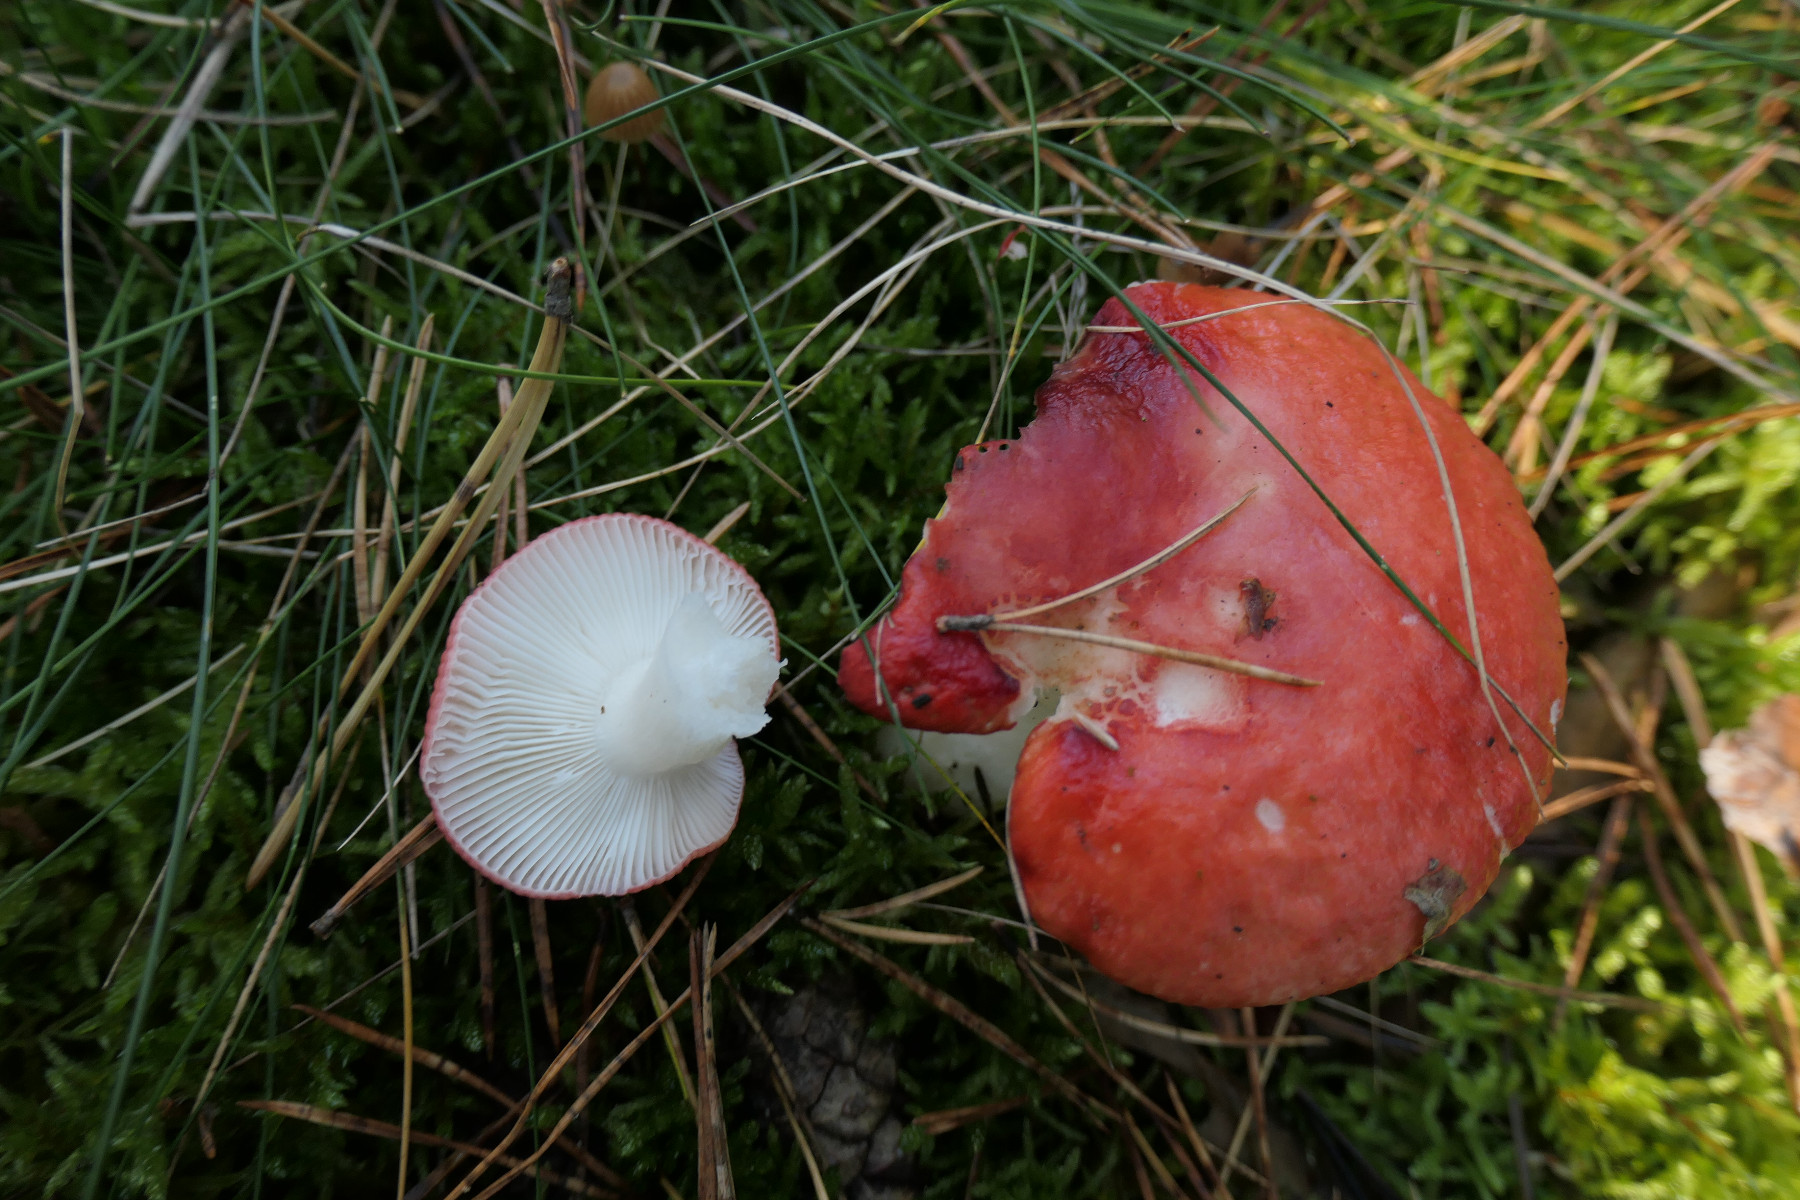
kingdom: Fungi
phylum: Basidiomycota
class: Agaricomycetes
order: Russulales
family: Russulaceae
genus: Russula
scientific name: Russula emetica
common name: stor gift-skørhat
